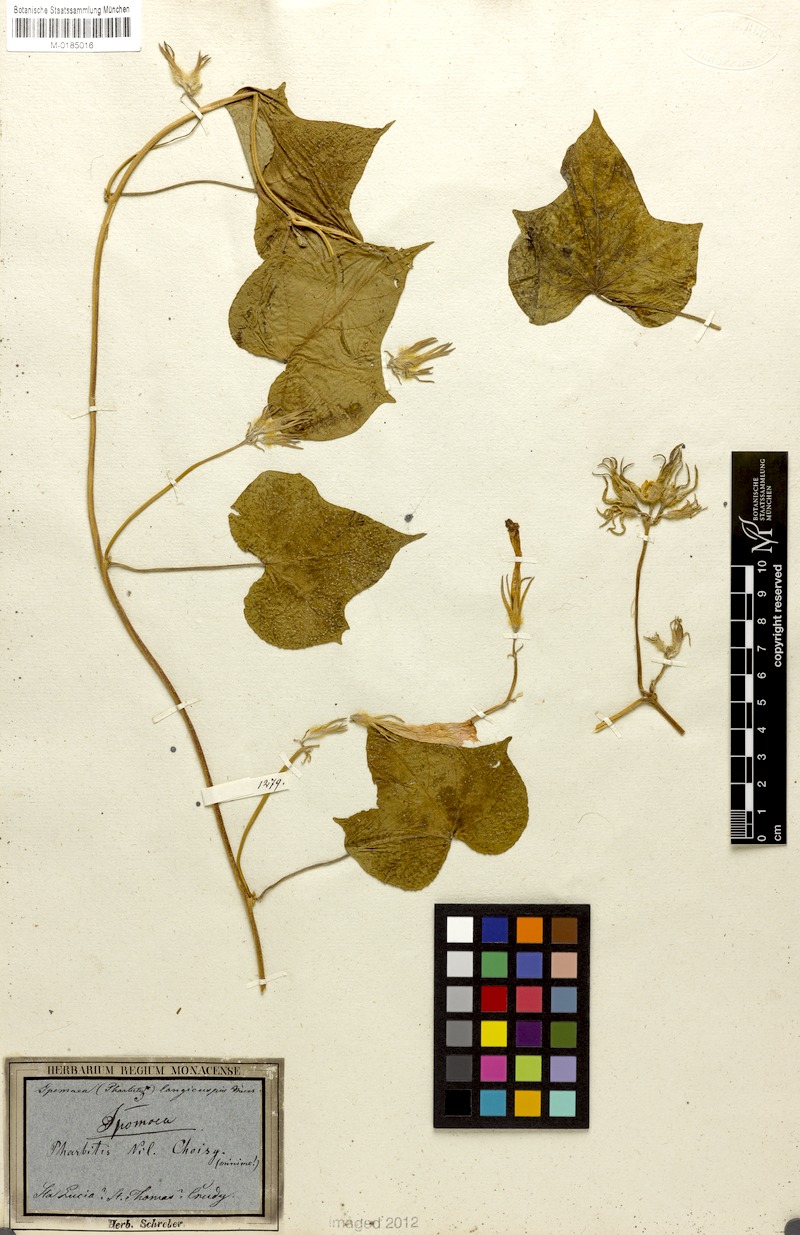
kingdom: Plantae
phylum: Tracheophyta
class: Magnoliopsida
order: Solanales
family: Convolvulaceae
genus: Ipomoea
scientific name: Ipomoea nil
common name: Japanese morning-glory
